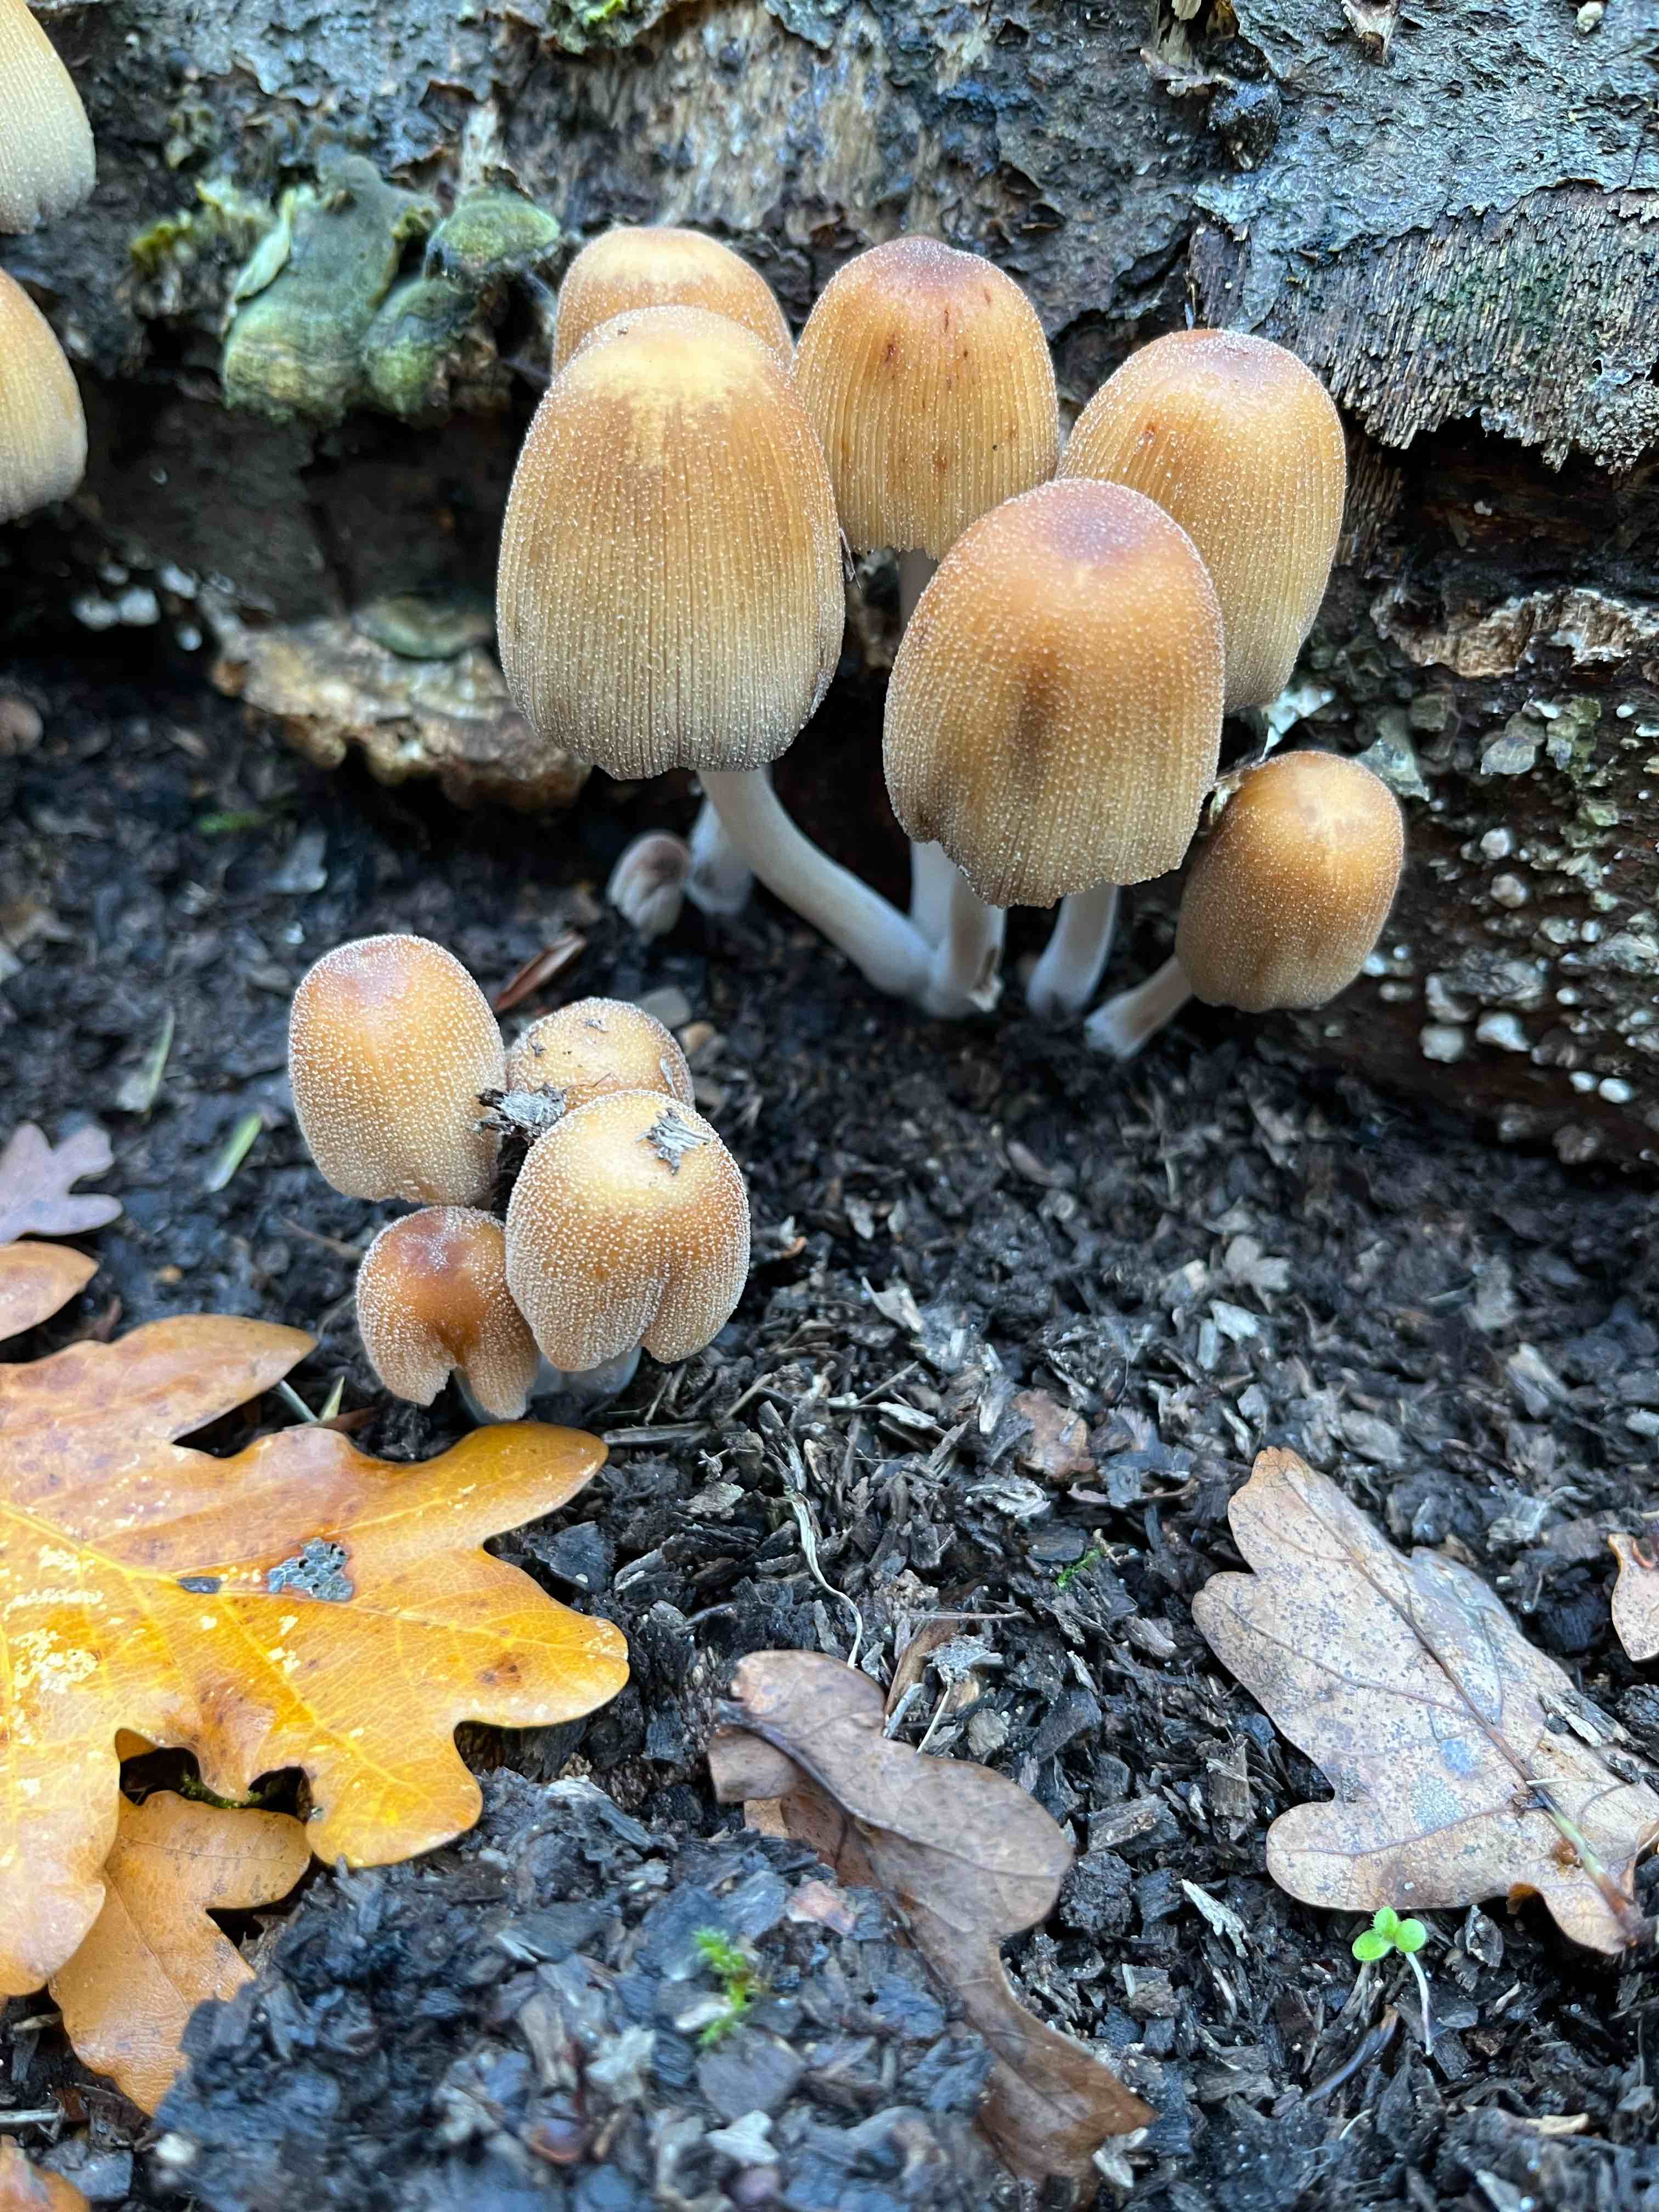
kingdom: Fungi
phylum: Basidiomycota
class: Agaricomycetes
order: Agaricales
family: Psathyrellaceae
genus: Coprinellus
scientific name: Coprinellus micaceus
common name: glimmer-blækhat
